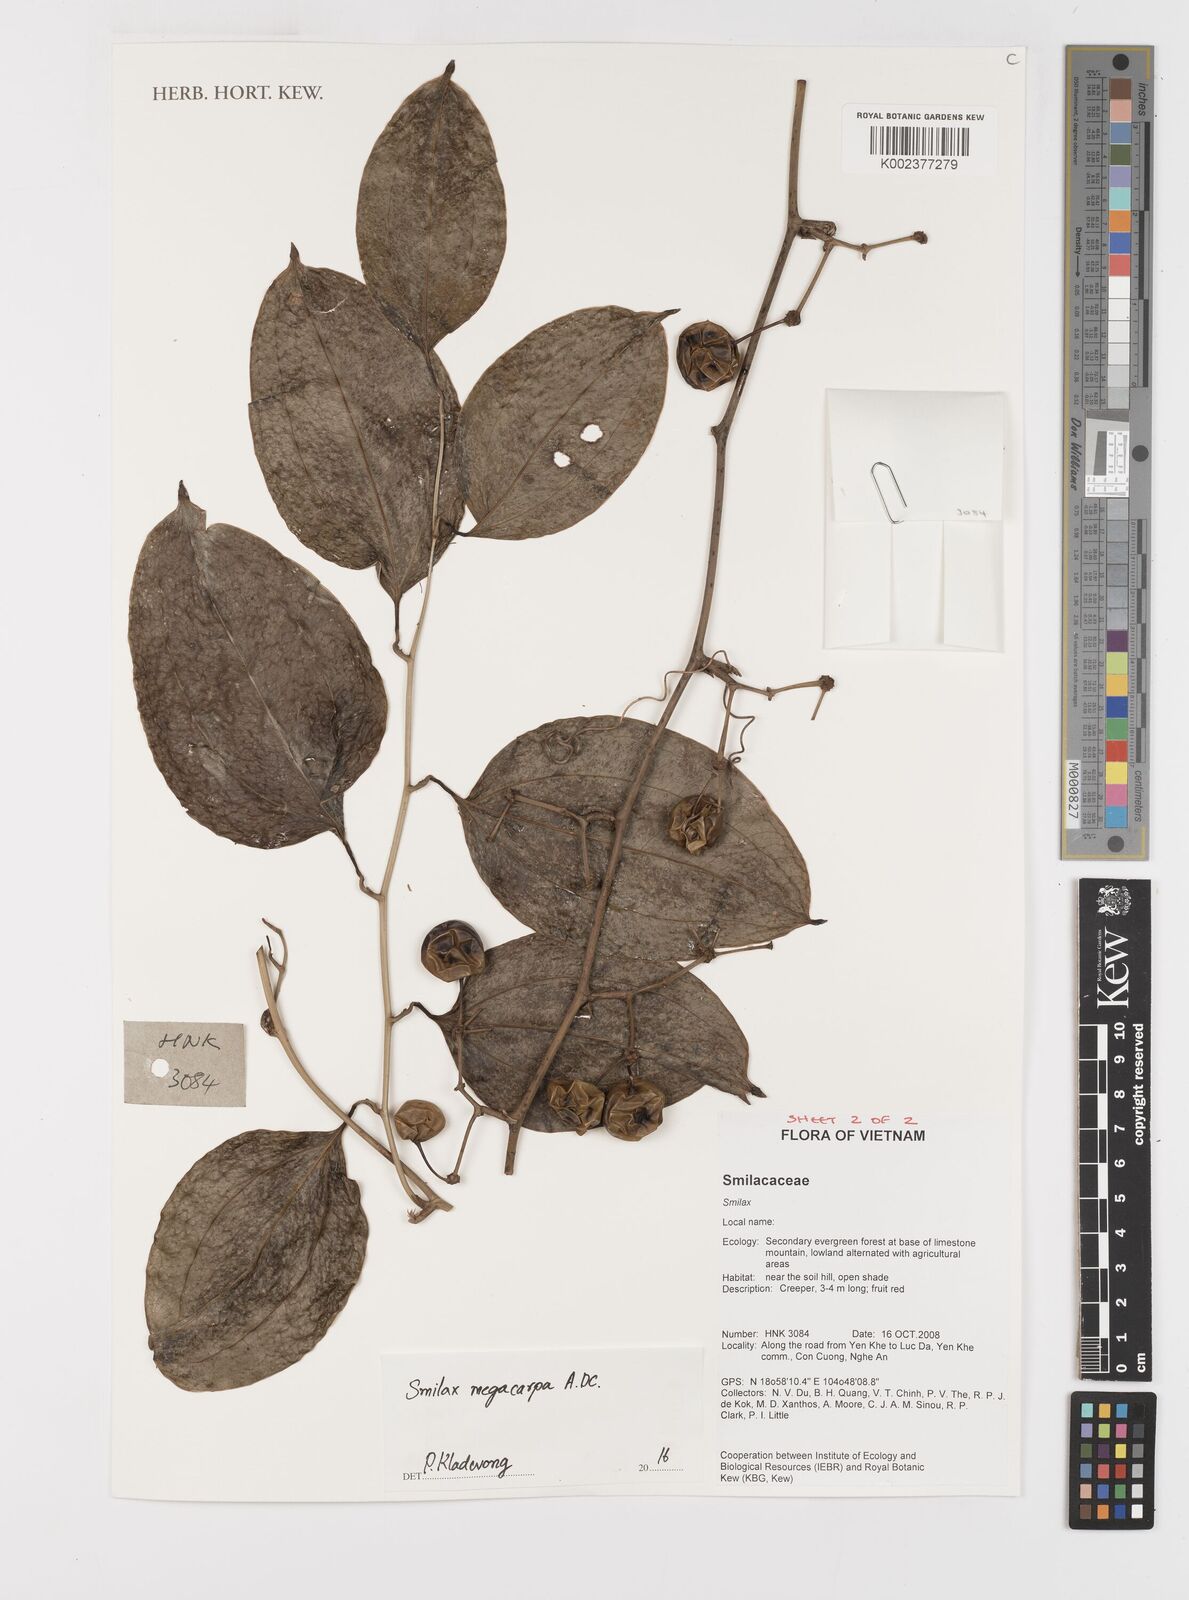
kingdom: Plantae
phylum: Tracheophyta
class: Liliopsida
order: Liliales
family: Smilacaceae
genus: Smilax
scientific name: Smilax megacarpa
